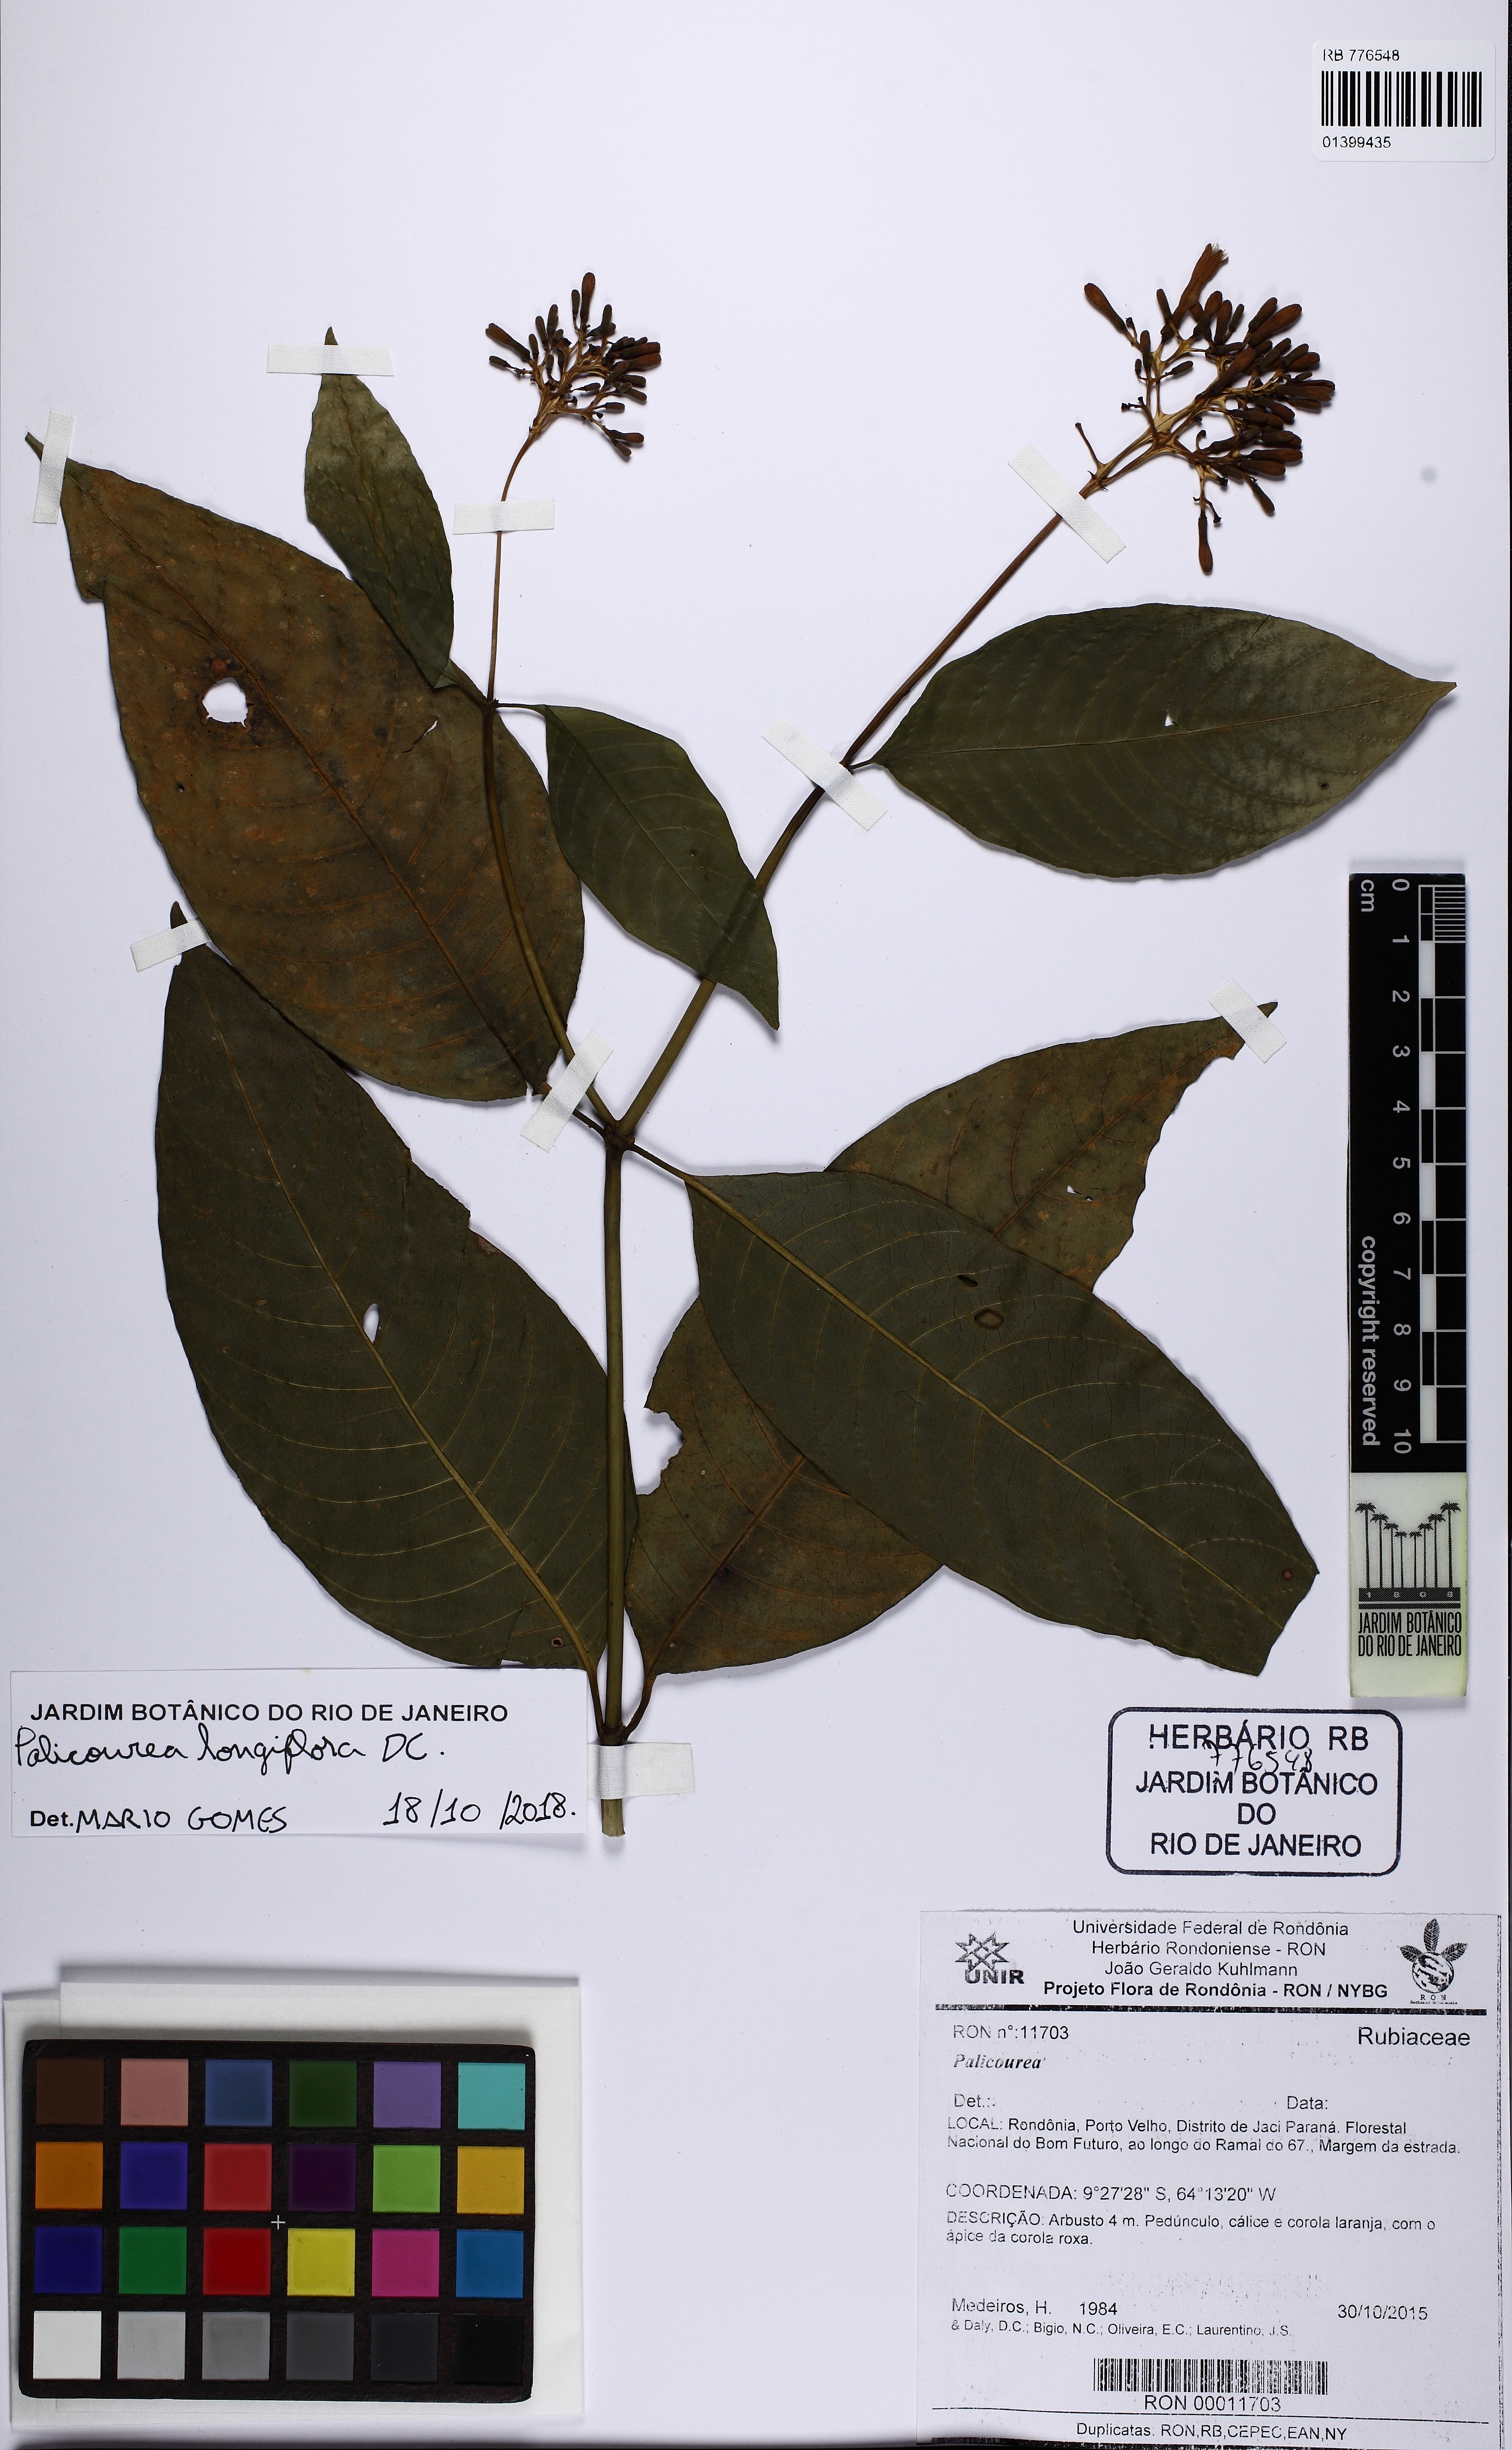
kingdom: Plantae
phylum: Tracheophyta
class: Magnoliopsida
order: Gentianales
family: Rubiaceae
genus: Palicourea
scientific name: Palicourea longiflora
